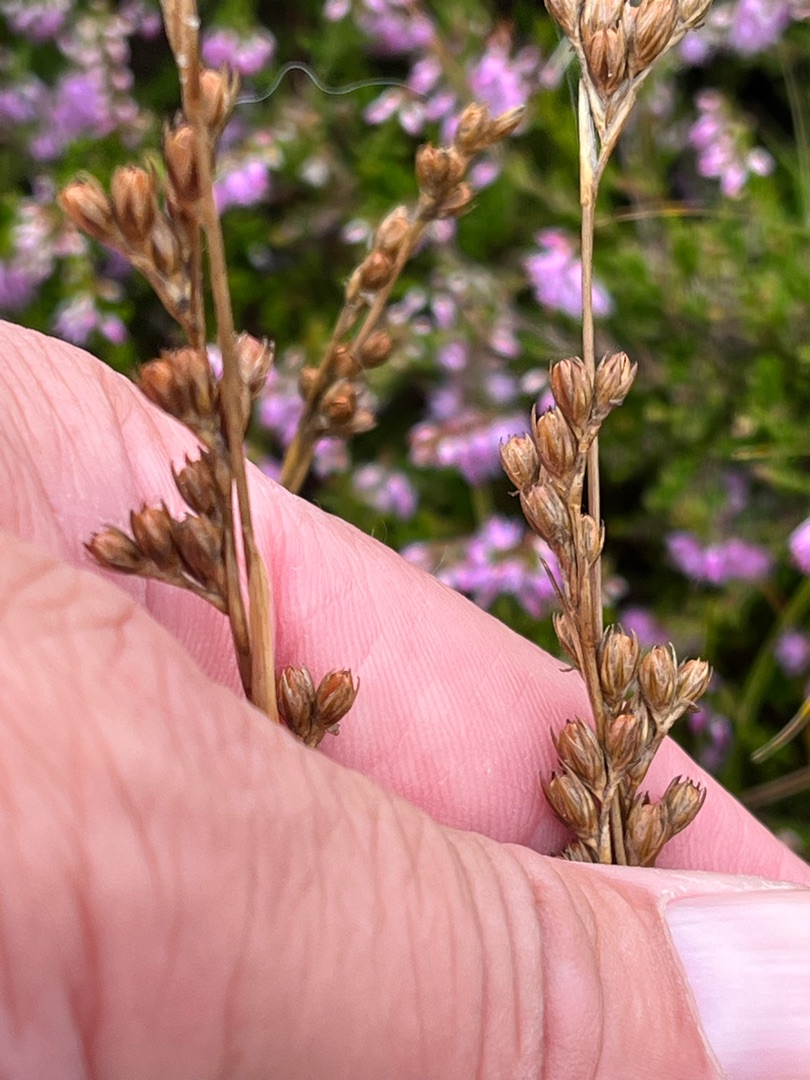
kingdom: Plantae
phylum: Tracheophyta
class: Liliopsida
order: Poales
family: Juncaceae
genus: Juncus
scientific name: Juncus squarrosus
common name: Børste-siv
